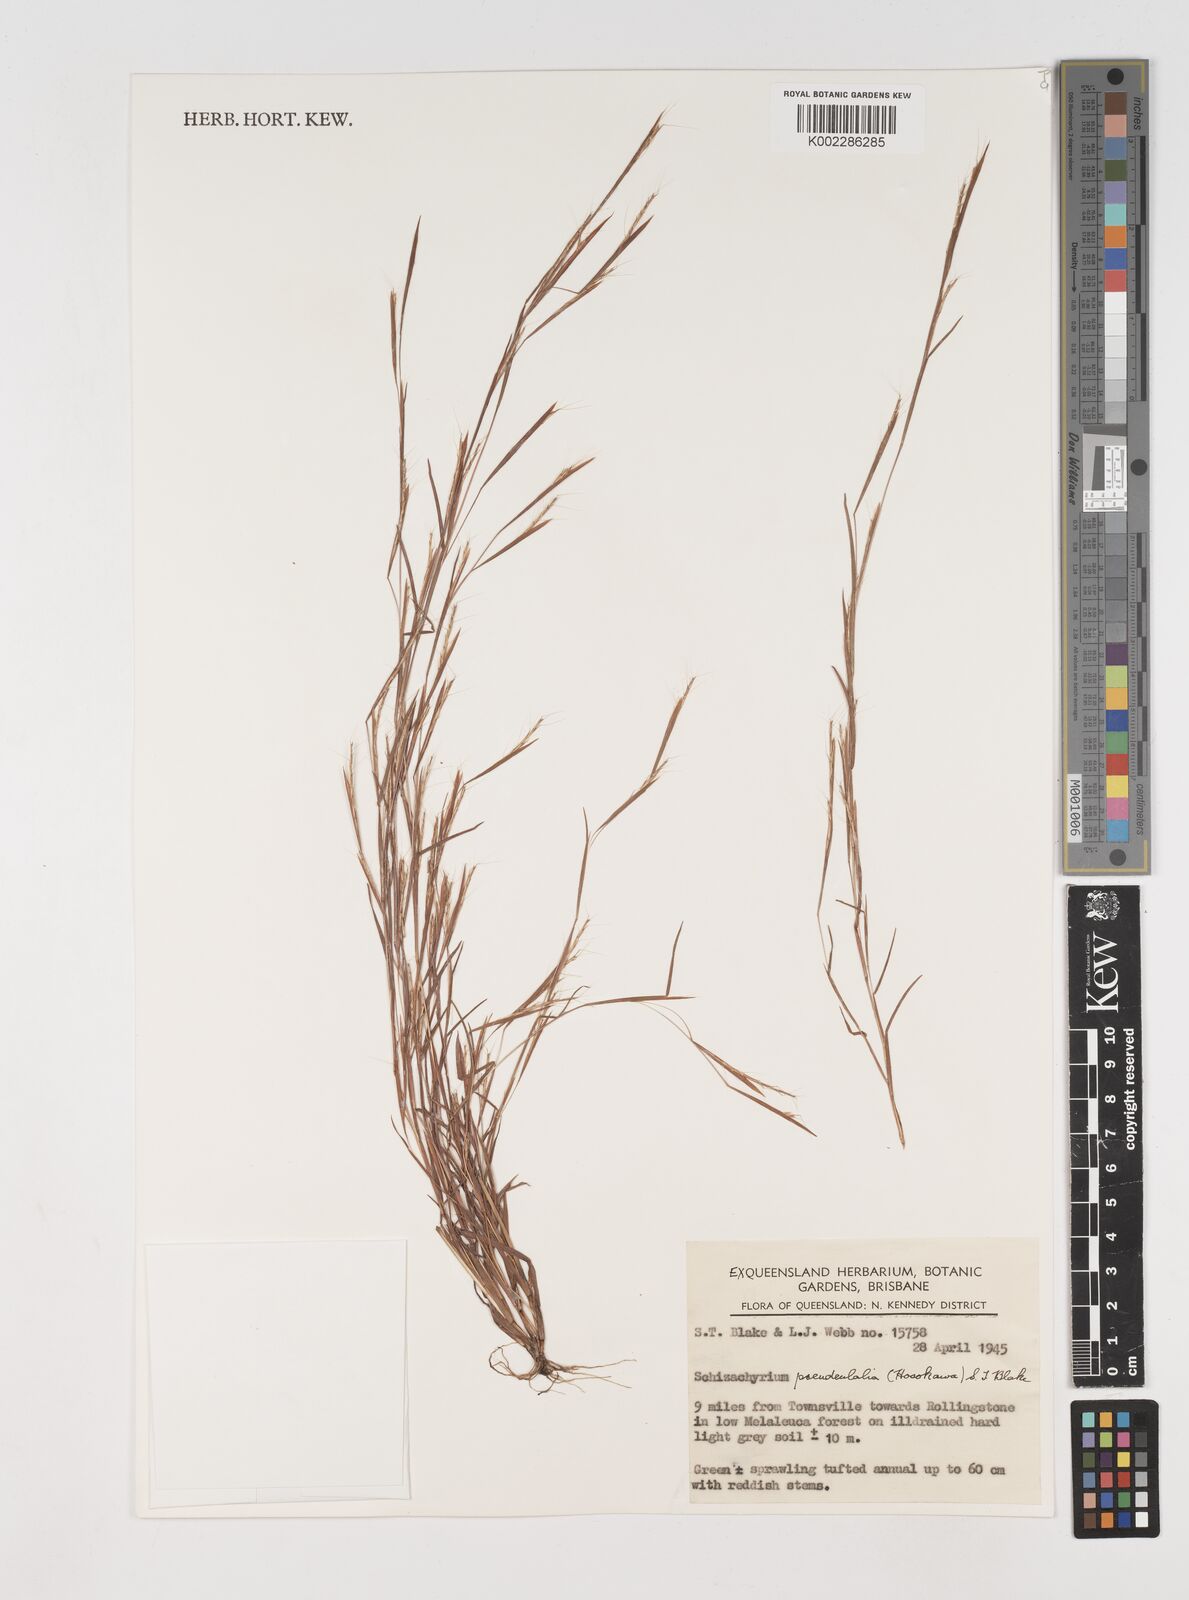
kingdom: Plantae
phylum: Tracheophyta
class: Liliopsida
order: Poales
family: Poaceae
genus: Schizachyrium
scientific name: Schizachyrium pseudeulalia
